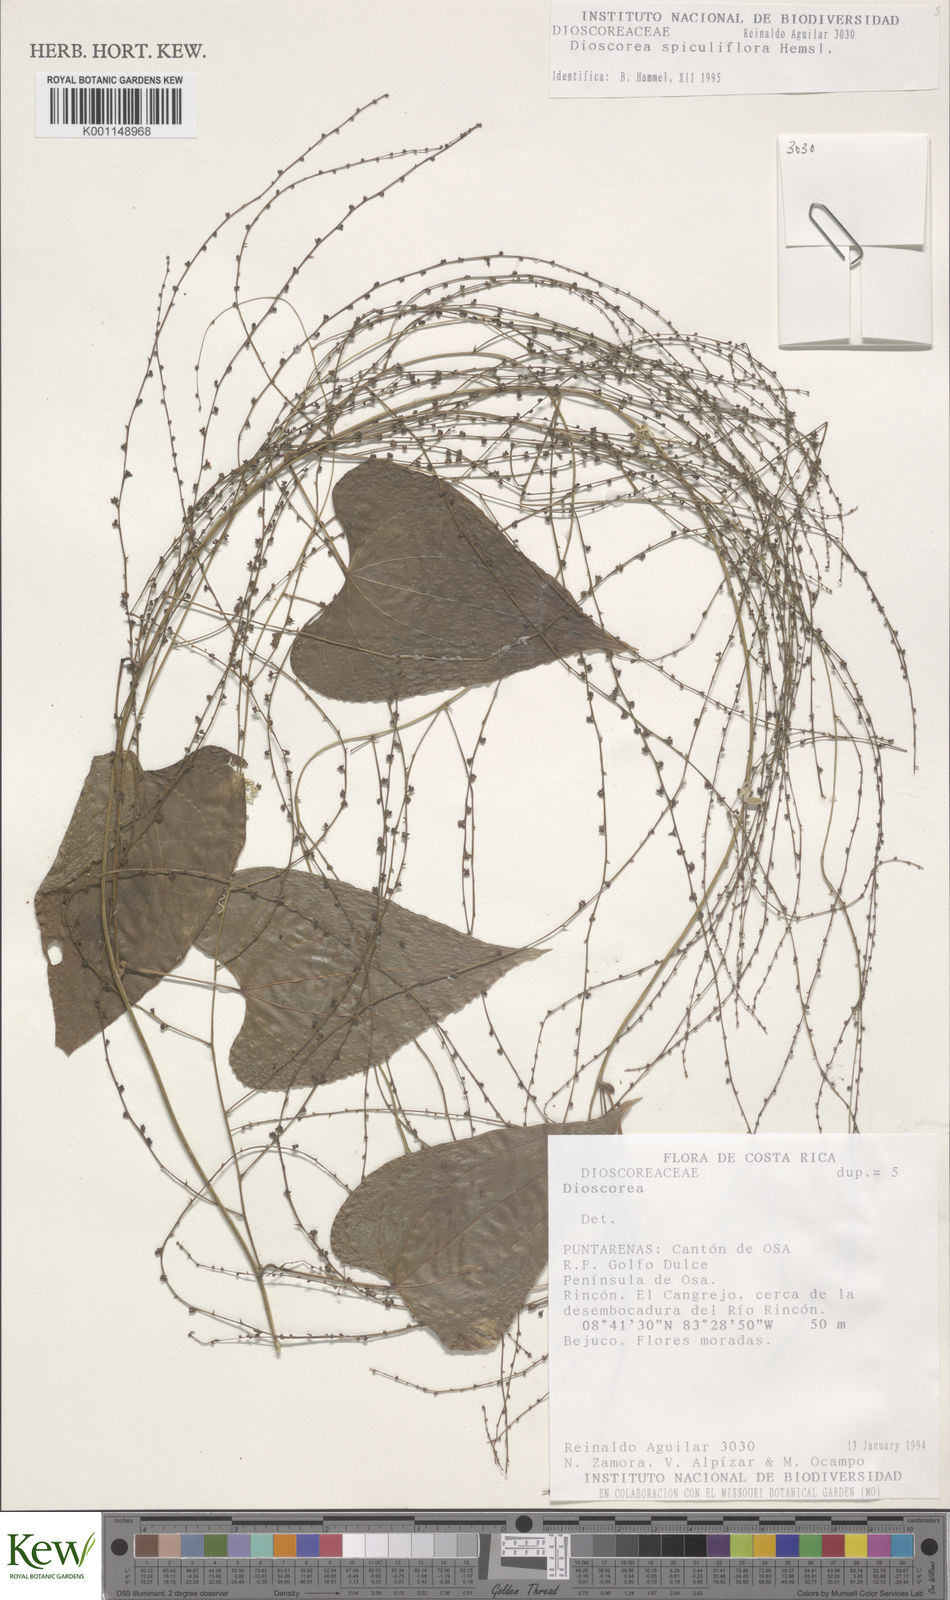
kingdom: Plantae
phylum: Tracheophyta
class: Liliopsida
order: Dioscoreales
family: Dioscoreaceae
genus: Dioscorea
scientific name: Dioscorea spiculiflora
